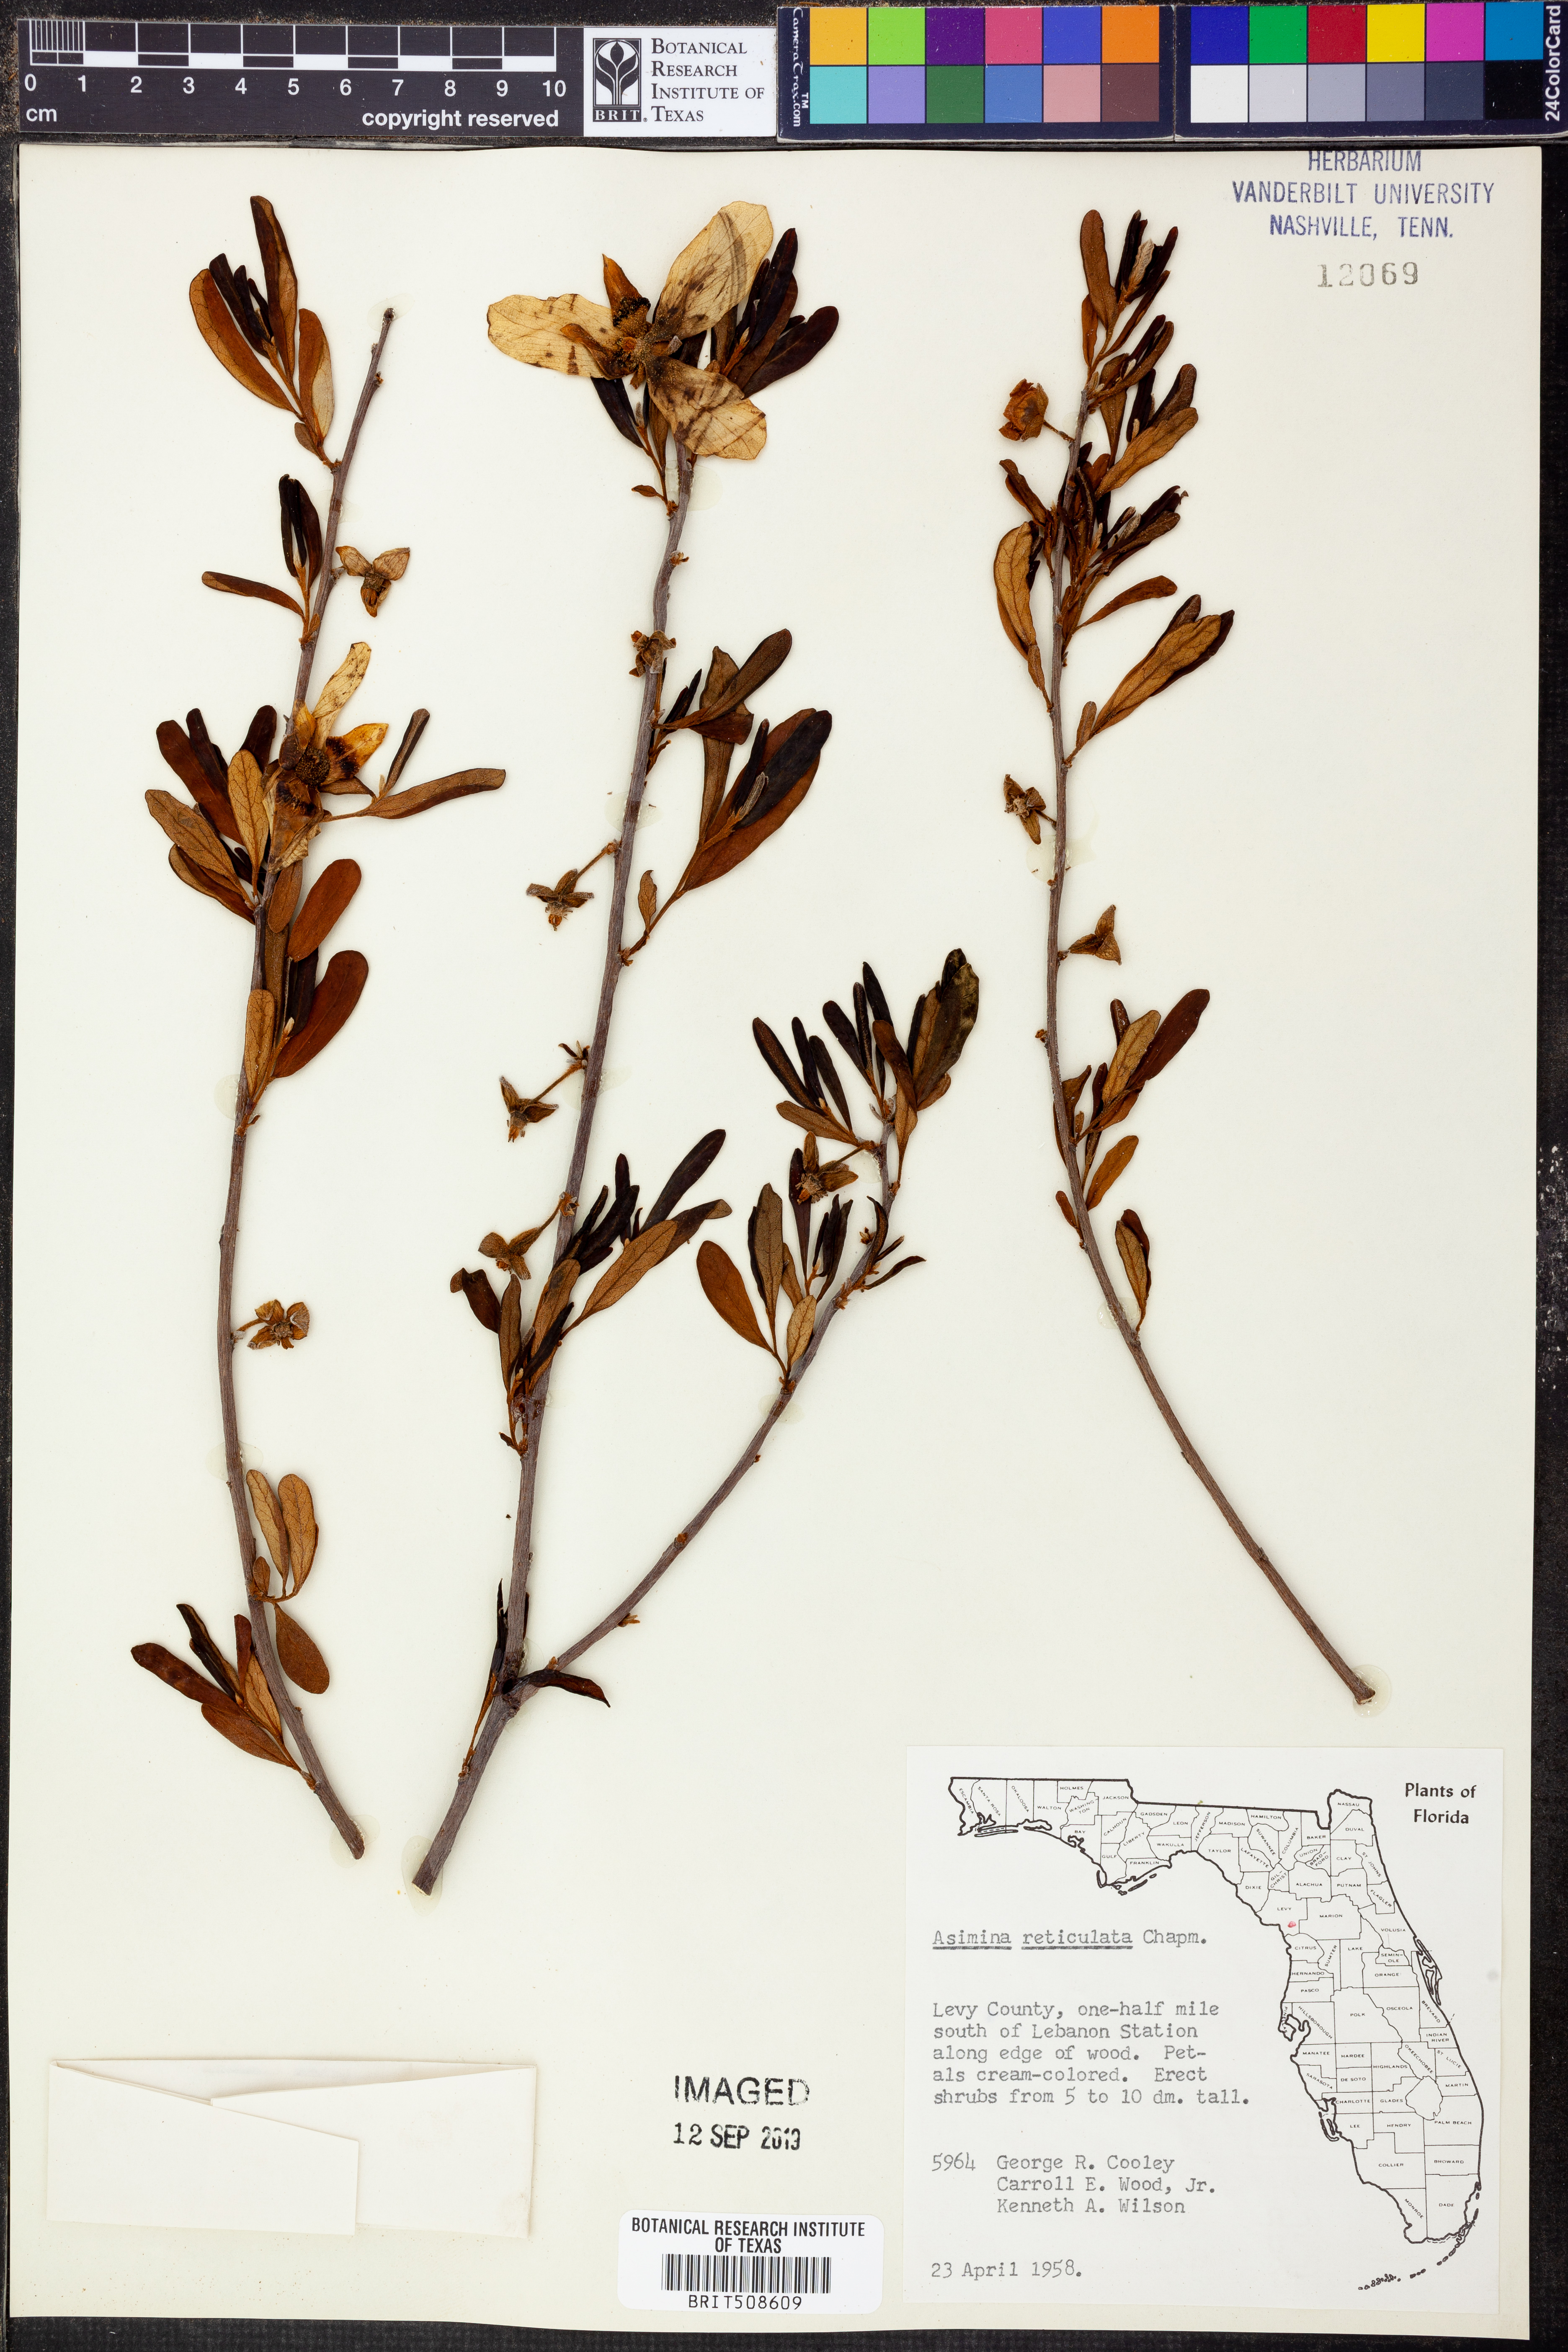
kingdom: Plantae
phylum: Tracheophyta
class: Magnoliopsida
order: Magnoliales
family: Annonaceae
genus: Asimina
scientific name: Asimina reticulata
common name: Flag pawpaw
